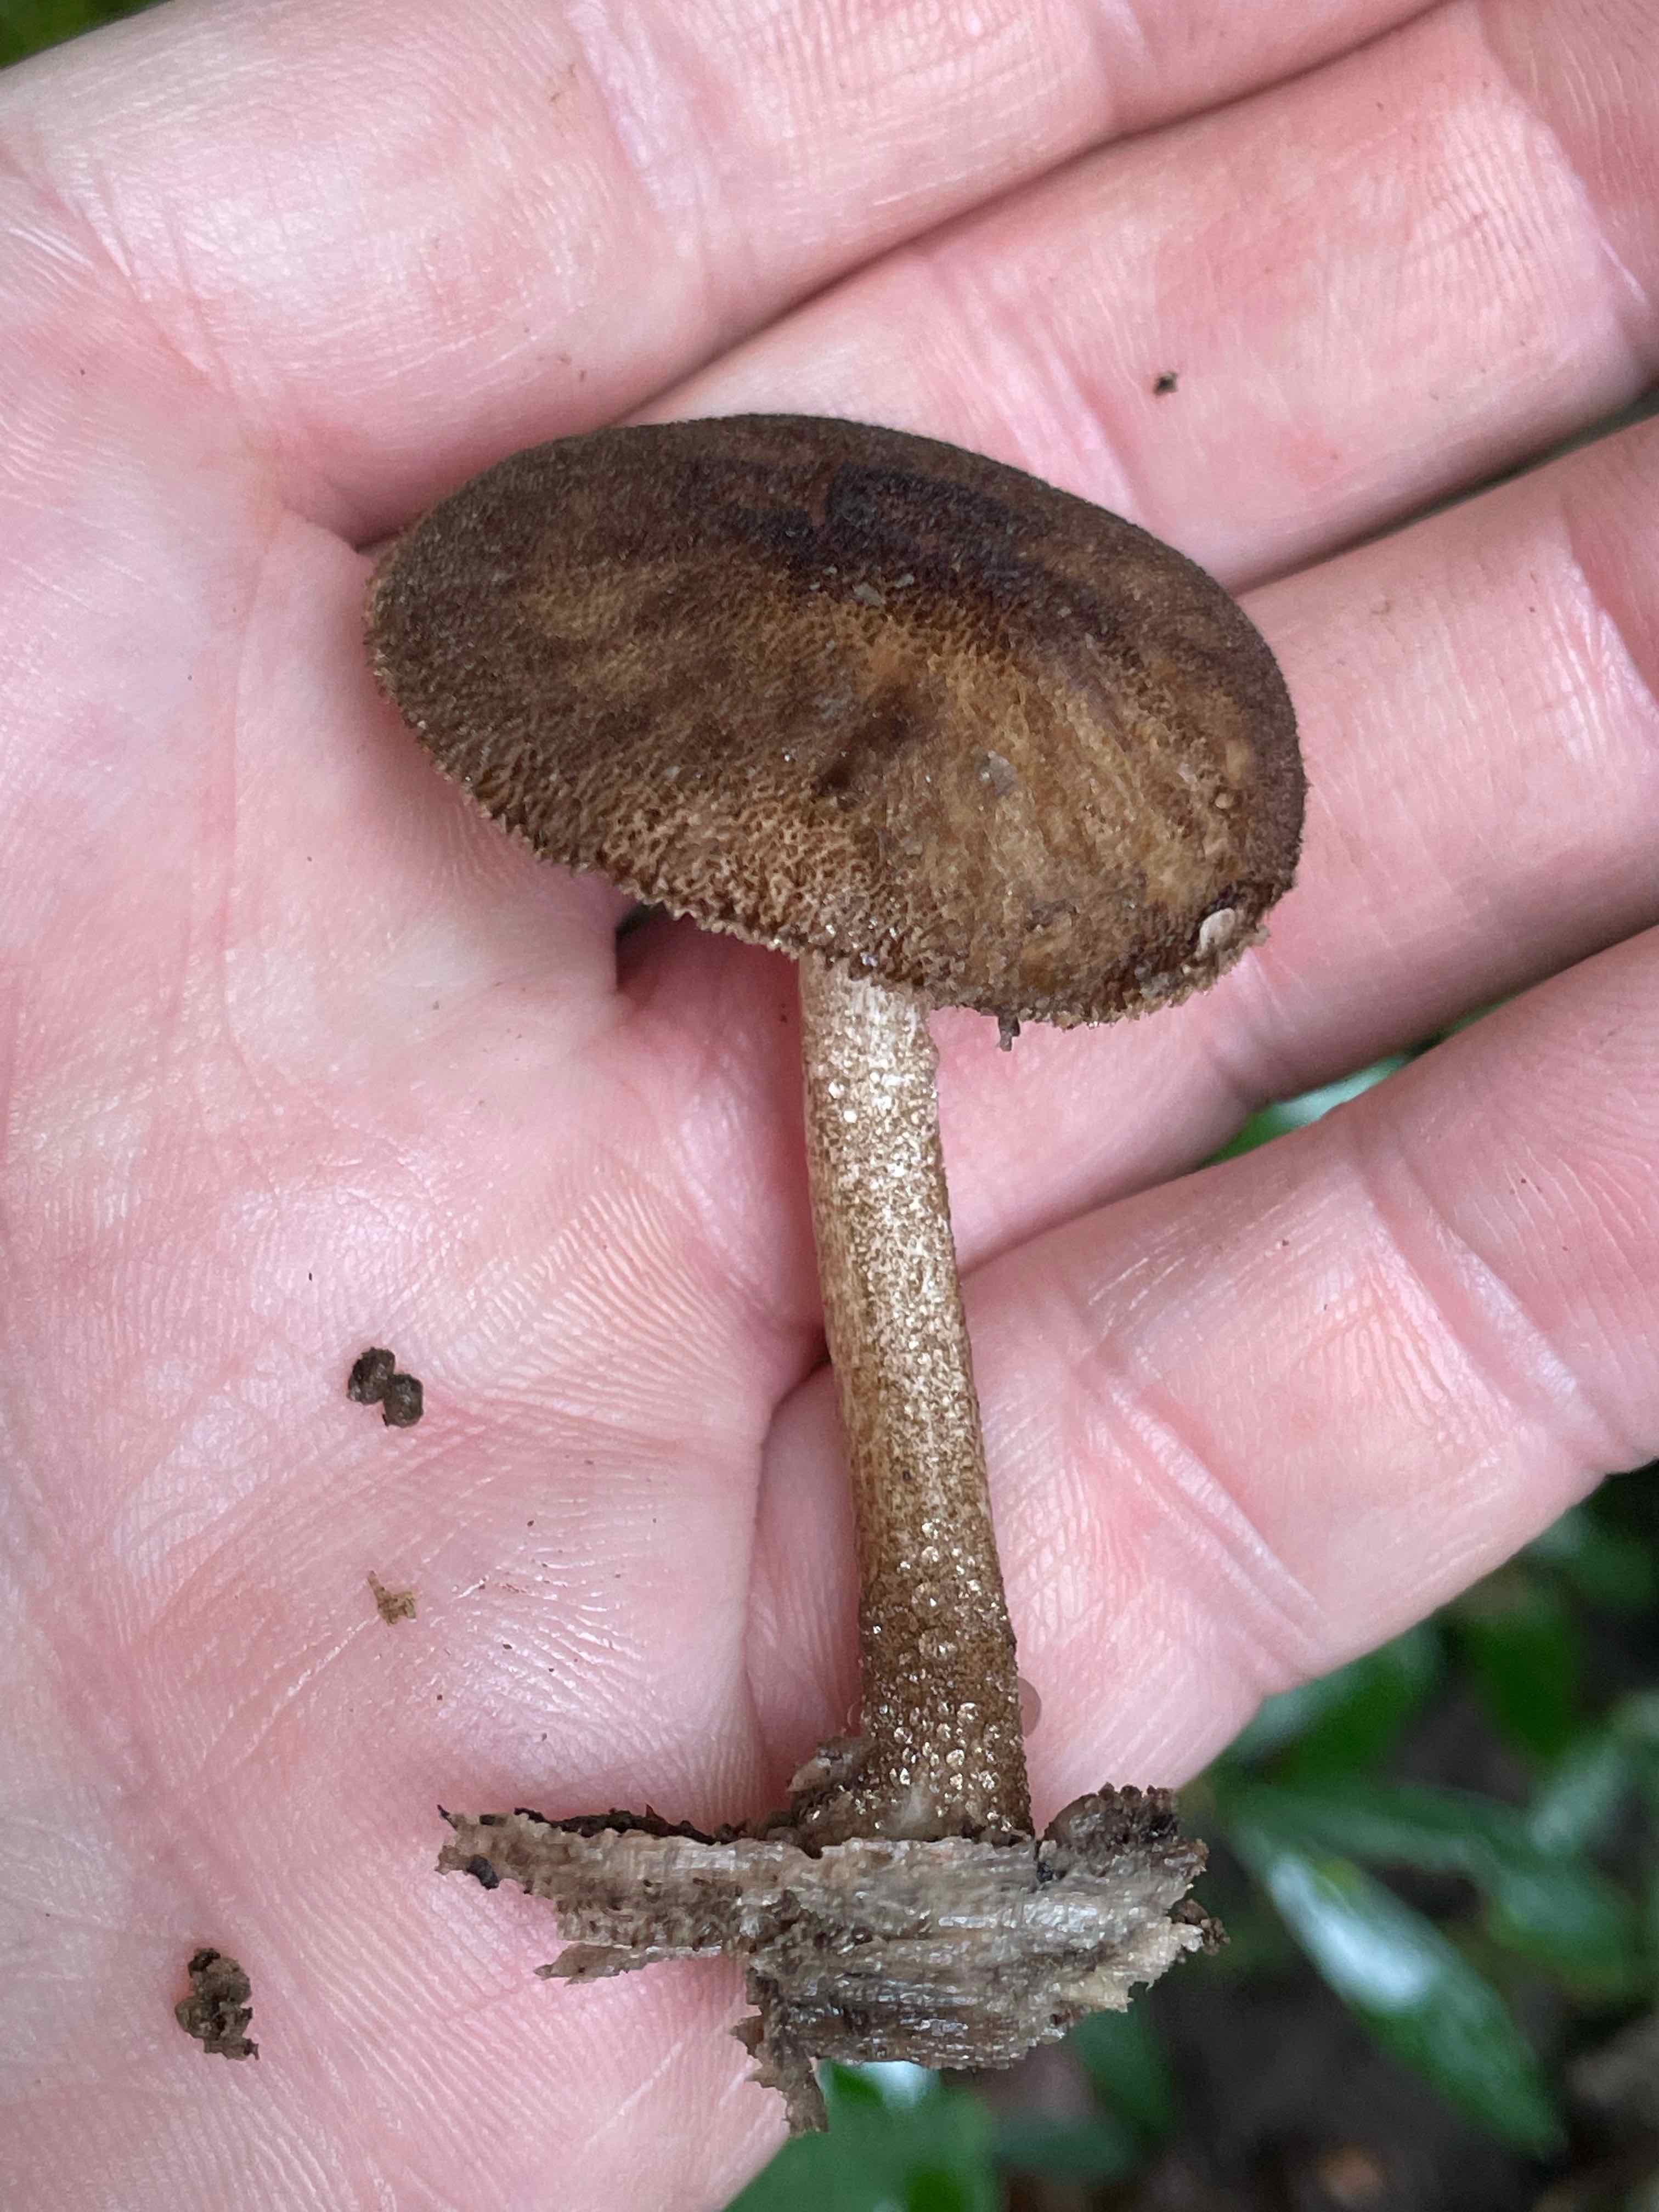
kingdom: Fungi
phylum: Basidiomycota
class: Agaricomycetes
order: Agaricales
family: Pluteaceae
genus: Pluteus
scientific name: Pluteus umbrosus
